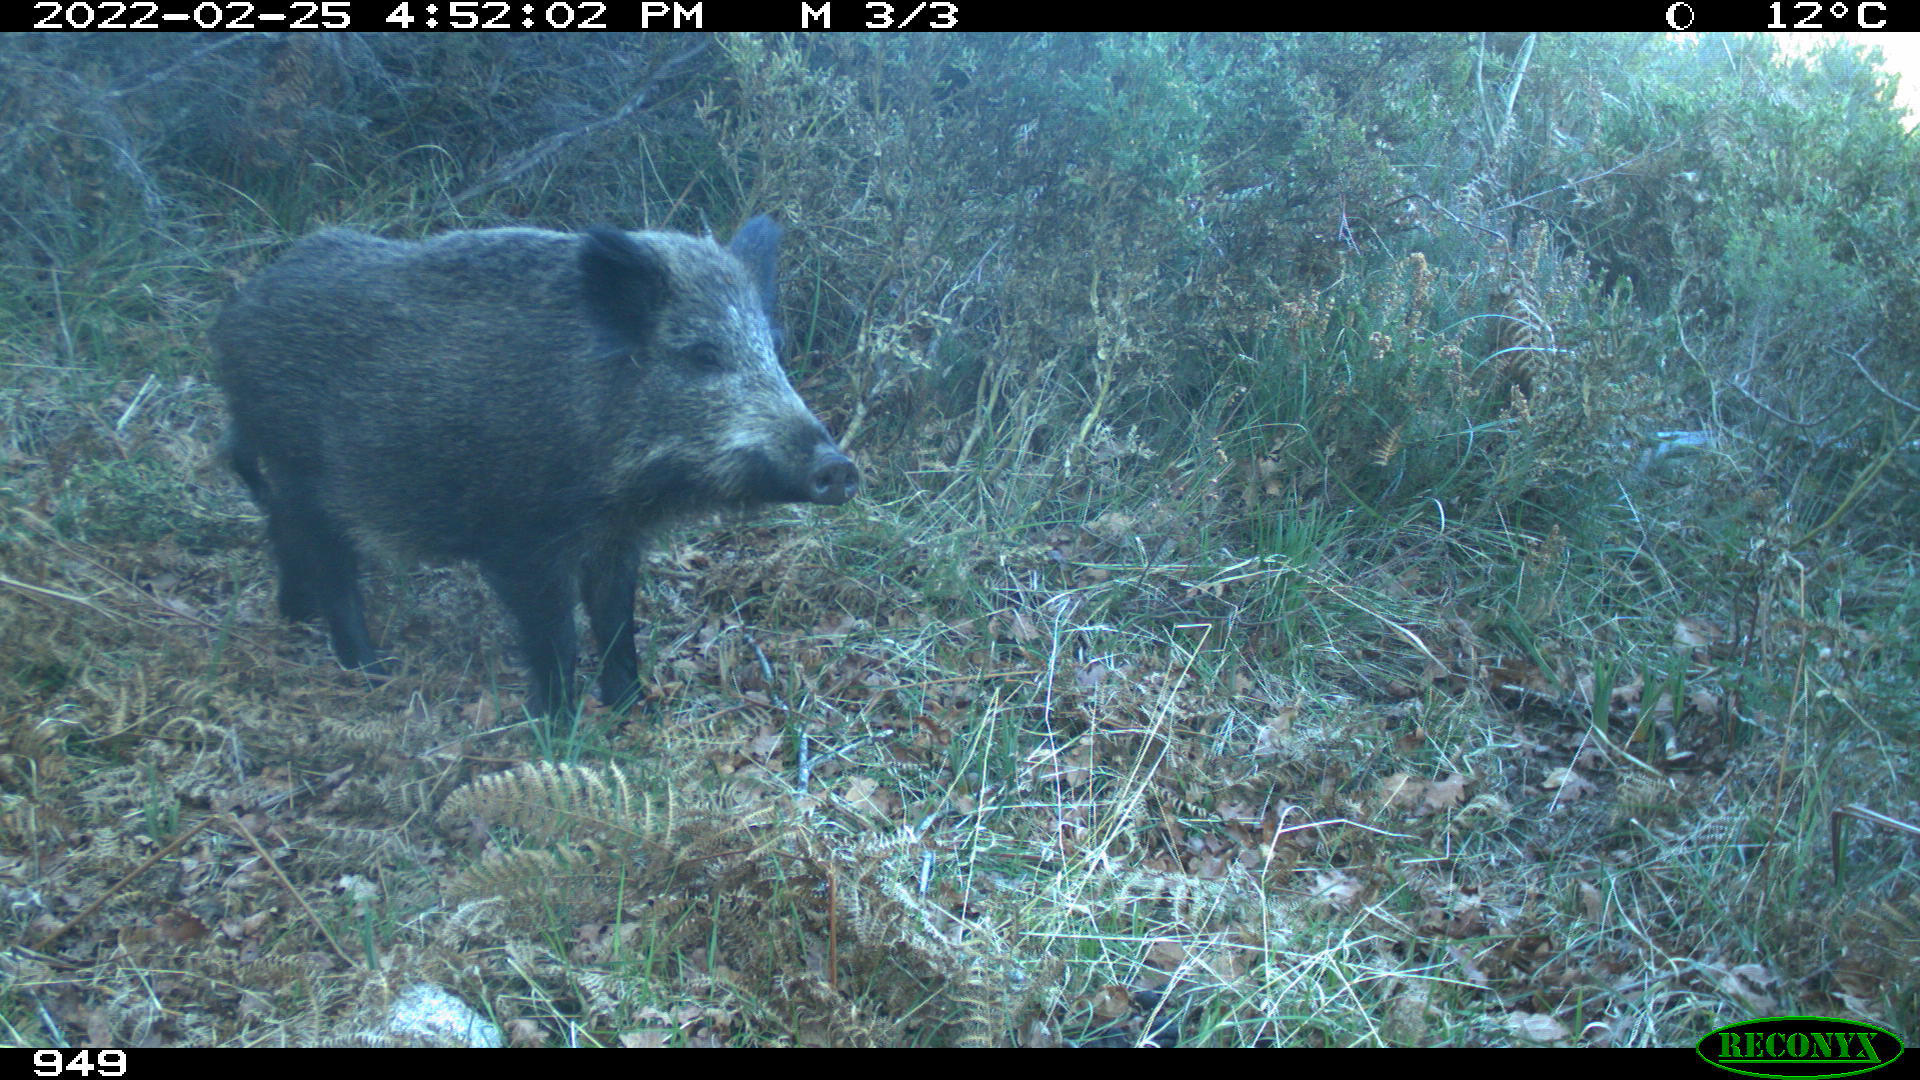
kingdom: Animalia
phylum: Chordata
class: Mammalia
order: Artiodactyla
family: Suidae
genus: Sus
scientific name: Sus scrofa
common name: Wild boar
